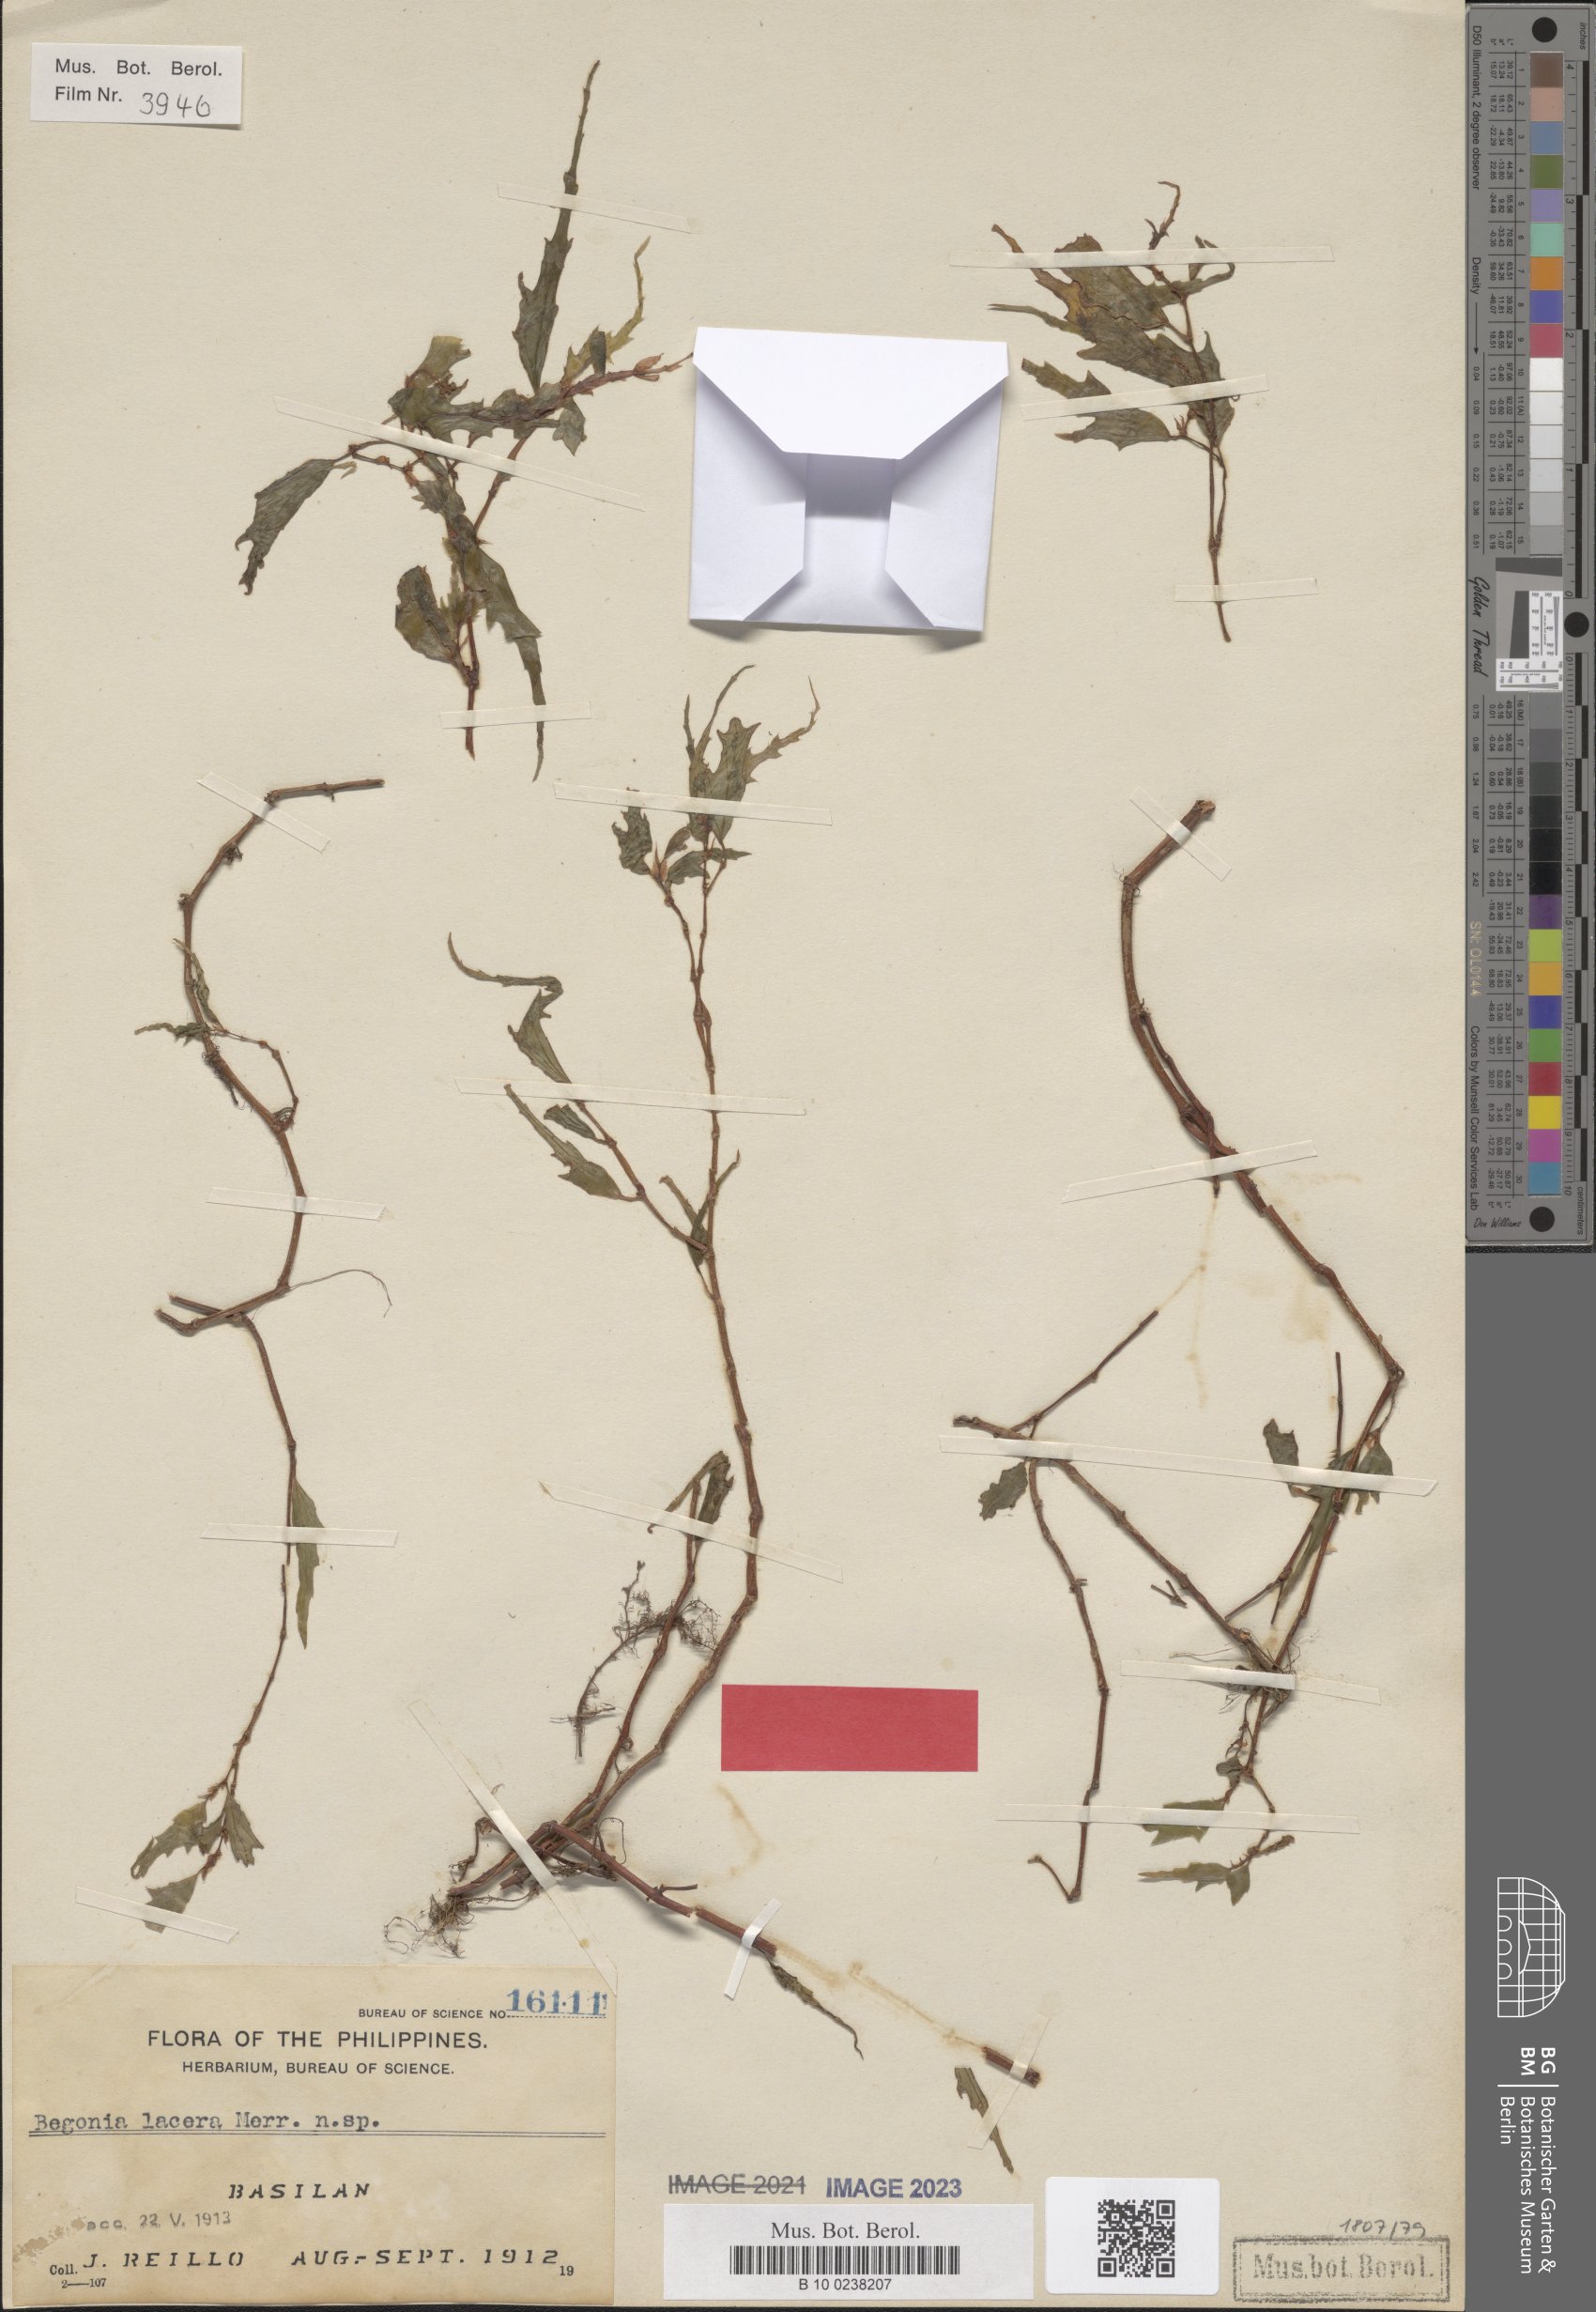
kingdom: Plantae
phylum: Tracheophyta
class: Magnoliopsida
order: Cucurbitales
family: Begoniaceae
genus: Begonia
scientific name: Begonia lacera
